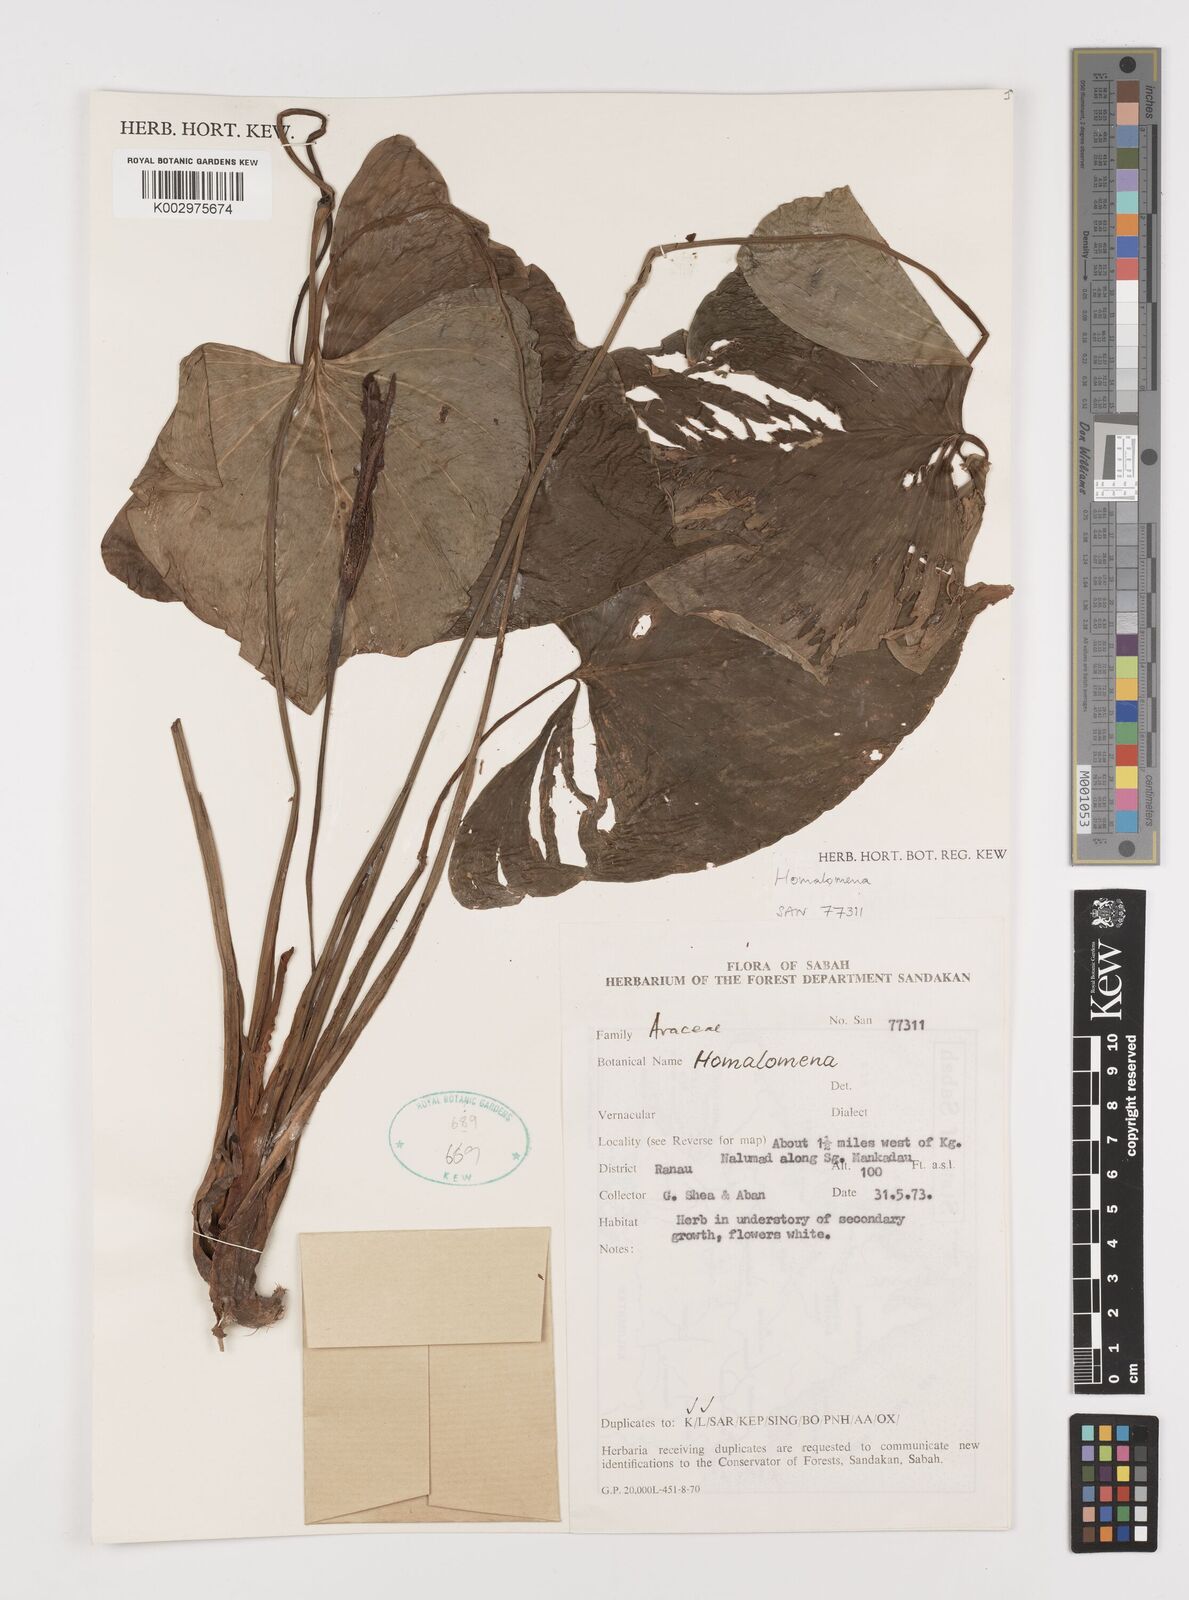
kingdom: Plantae
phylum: Tracheophyta
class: Liliopsida
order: Alismatales
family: Araceae
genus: Homalomena
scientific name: Homalomena
